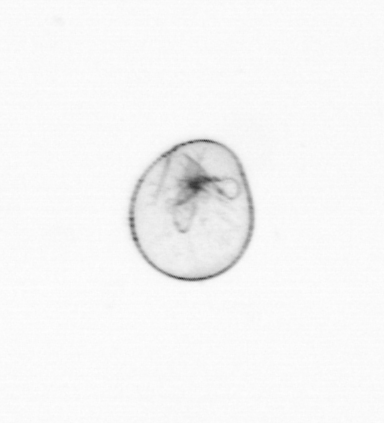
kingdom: Chromista
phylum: Myzozoa
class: Dinophyceae
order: Noctilucales
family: Noctilucaceae
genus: Noctiluca
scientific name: Noctiluca scintillans
